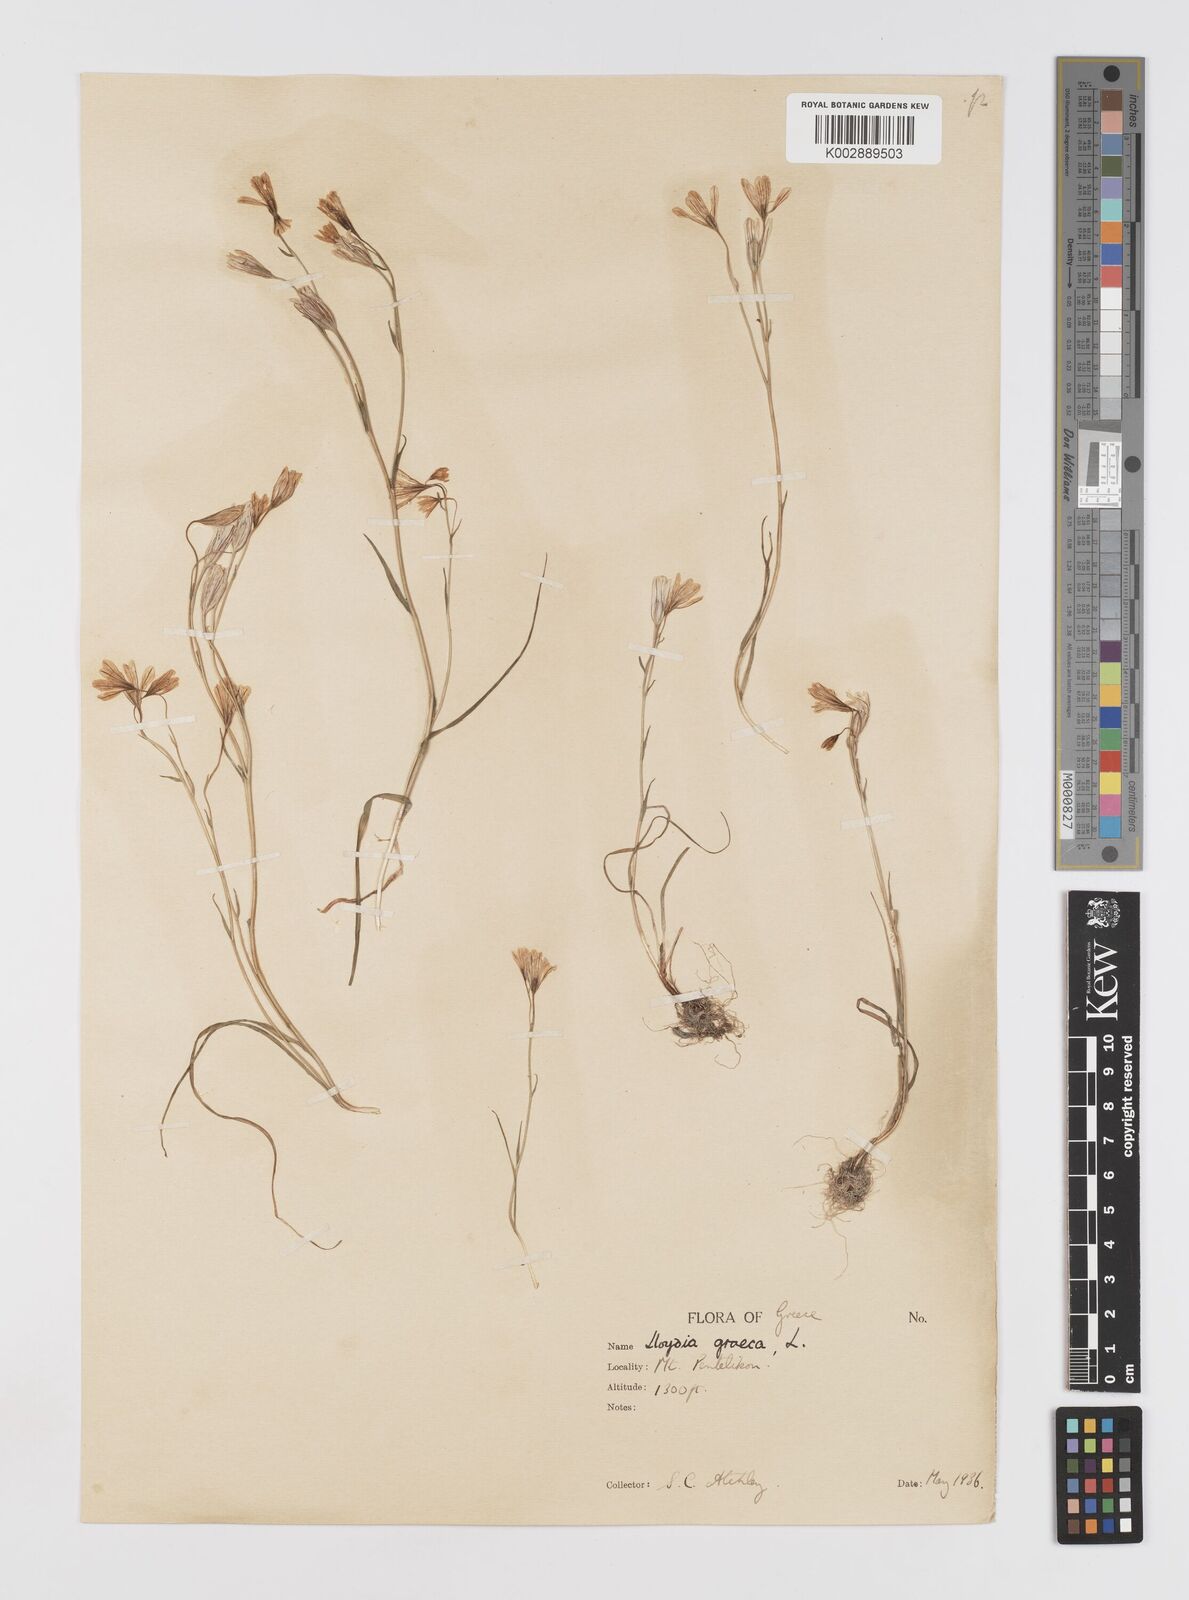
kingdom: Plantae
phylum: Tracheophyta
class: Liliopsida
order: Liliales
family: Liliaceae
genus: Gagea
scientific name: Gagea graeca
